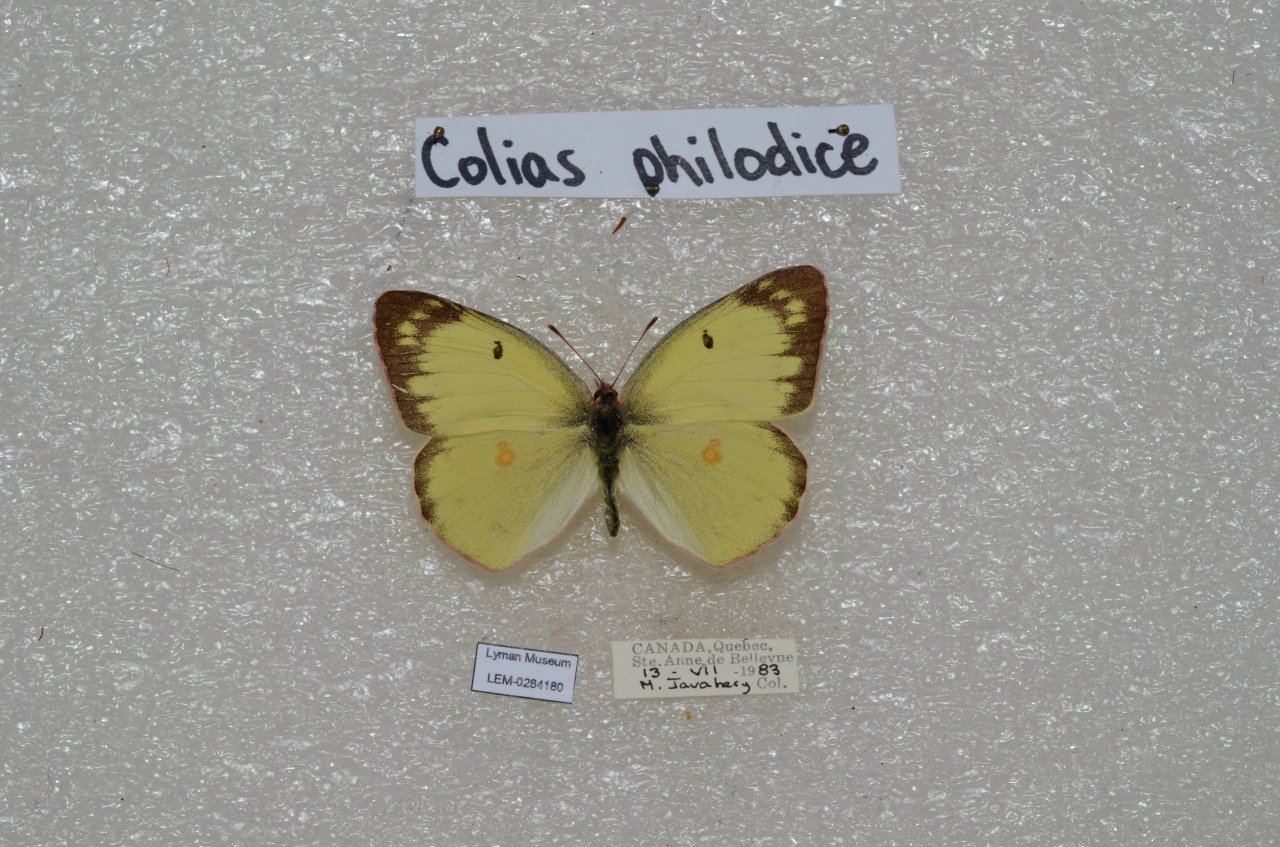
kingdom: Animalia
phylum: Arthropoda
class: Insecta
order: Lepidoptera
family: Pieridae
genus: Colias
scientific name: Colias philodice
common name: Clouded Sulphur
